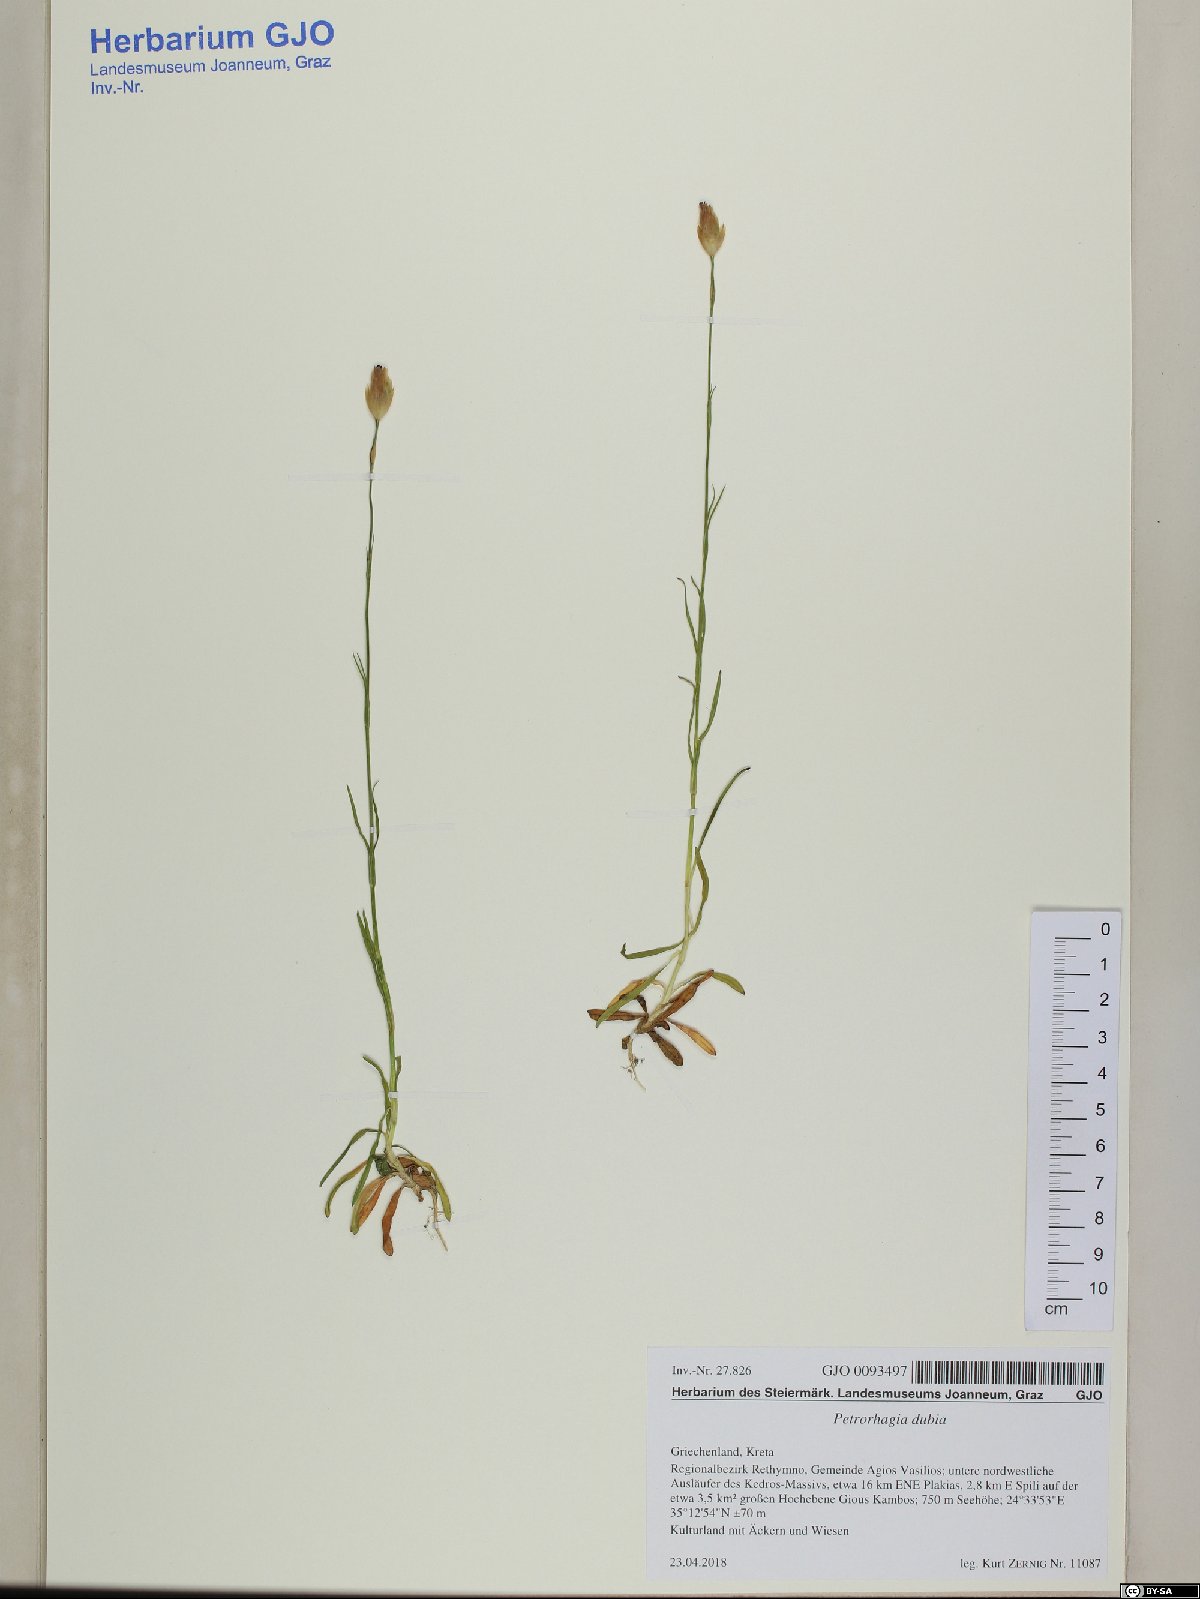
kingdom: Plantae
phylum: Tracheophyta
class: Magnoliopsida
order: Caryophyllales
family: Caryophyllaceae
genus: Petrorhagia
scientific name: Petrorhagia dubia
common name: Hairypink
